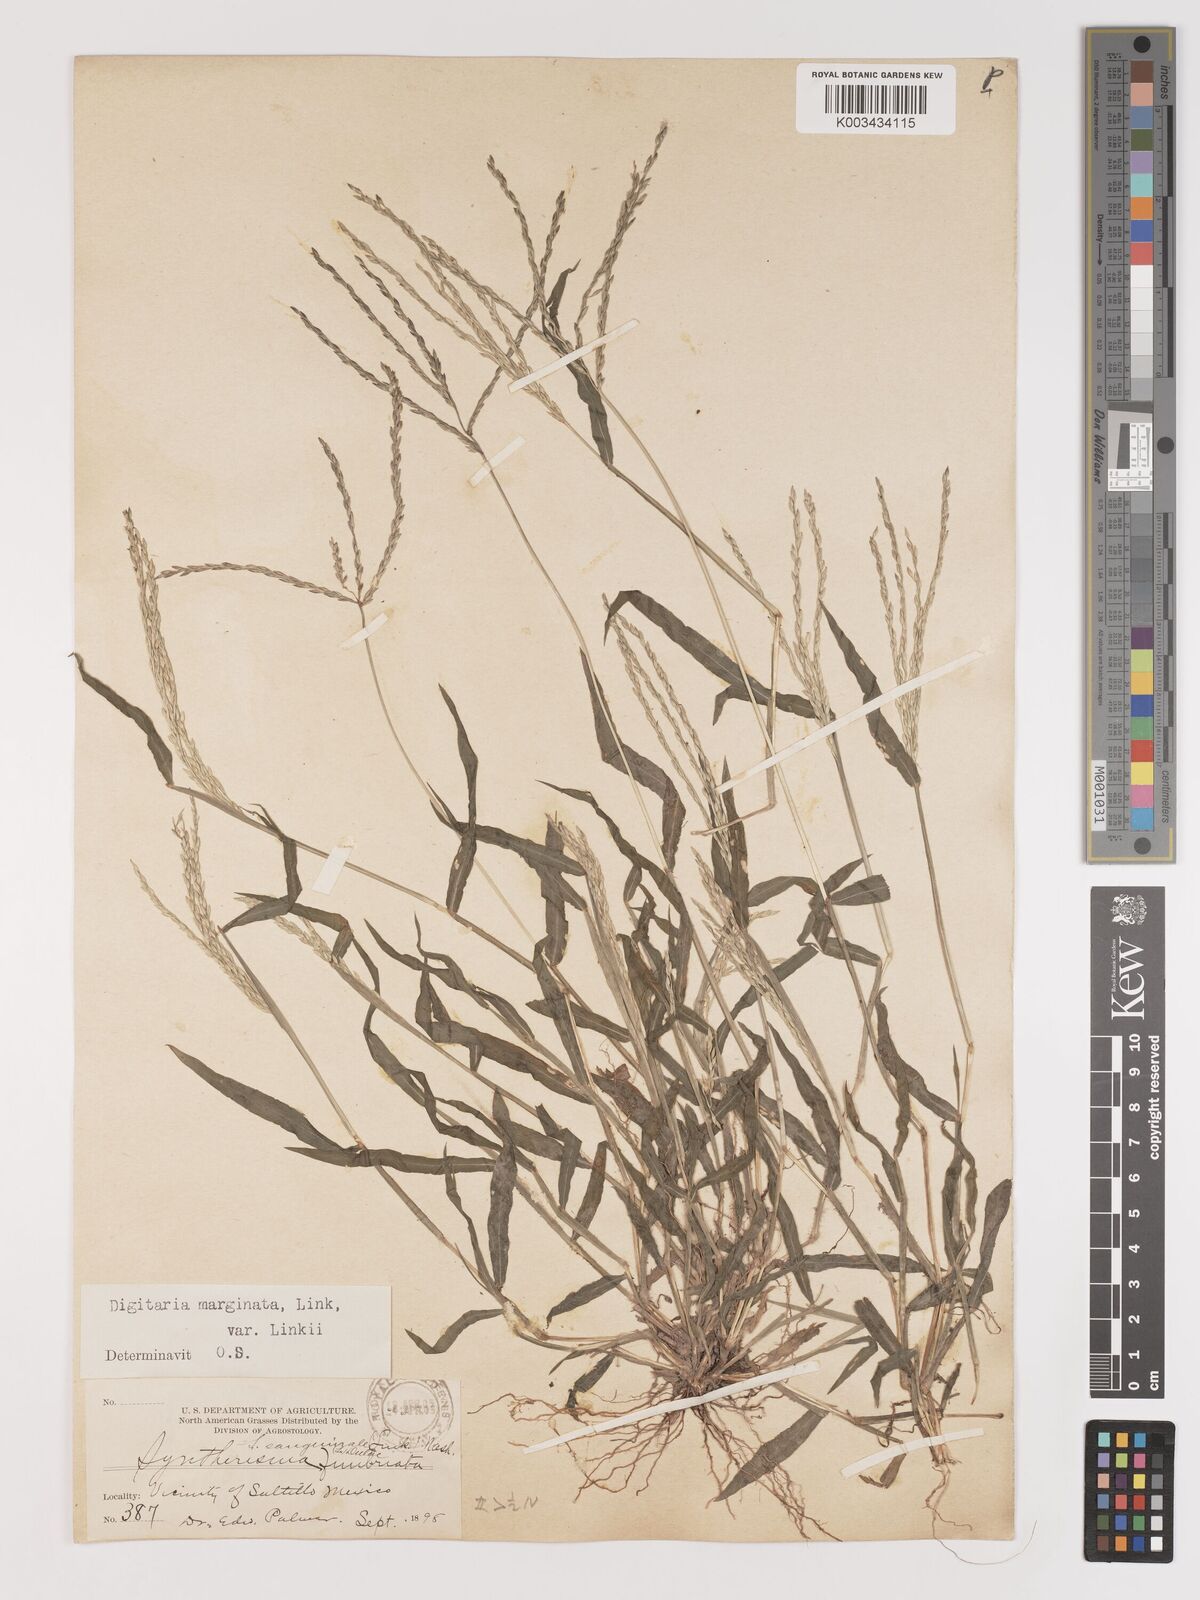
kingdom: Plantae
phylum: Tracheophyta
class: Liliopsida
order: Poales
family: Poaceae
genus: Digitaria
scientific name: Digitaria ciliaris
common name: Tropical finger-grass
